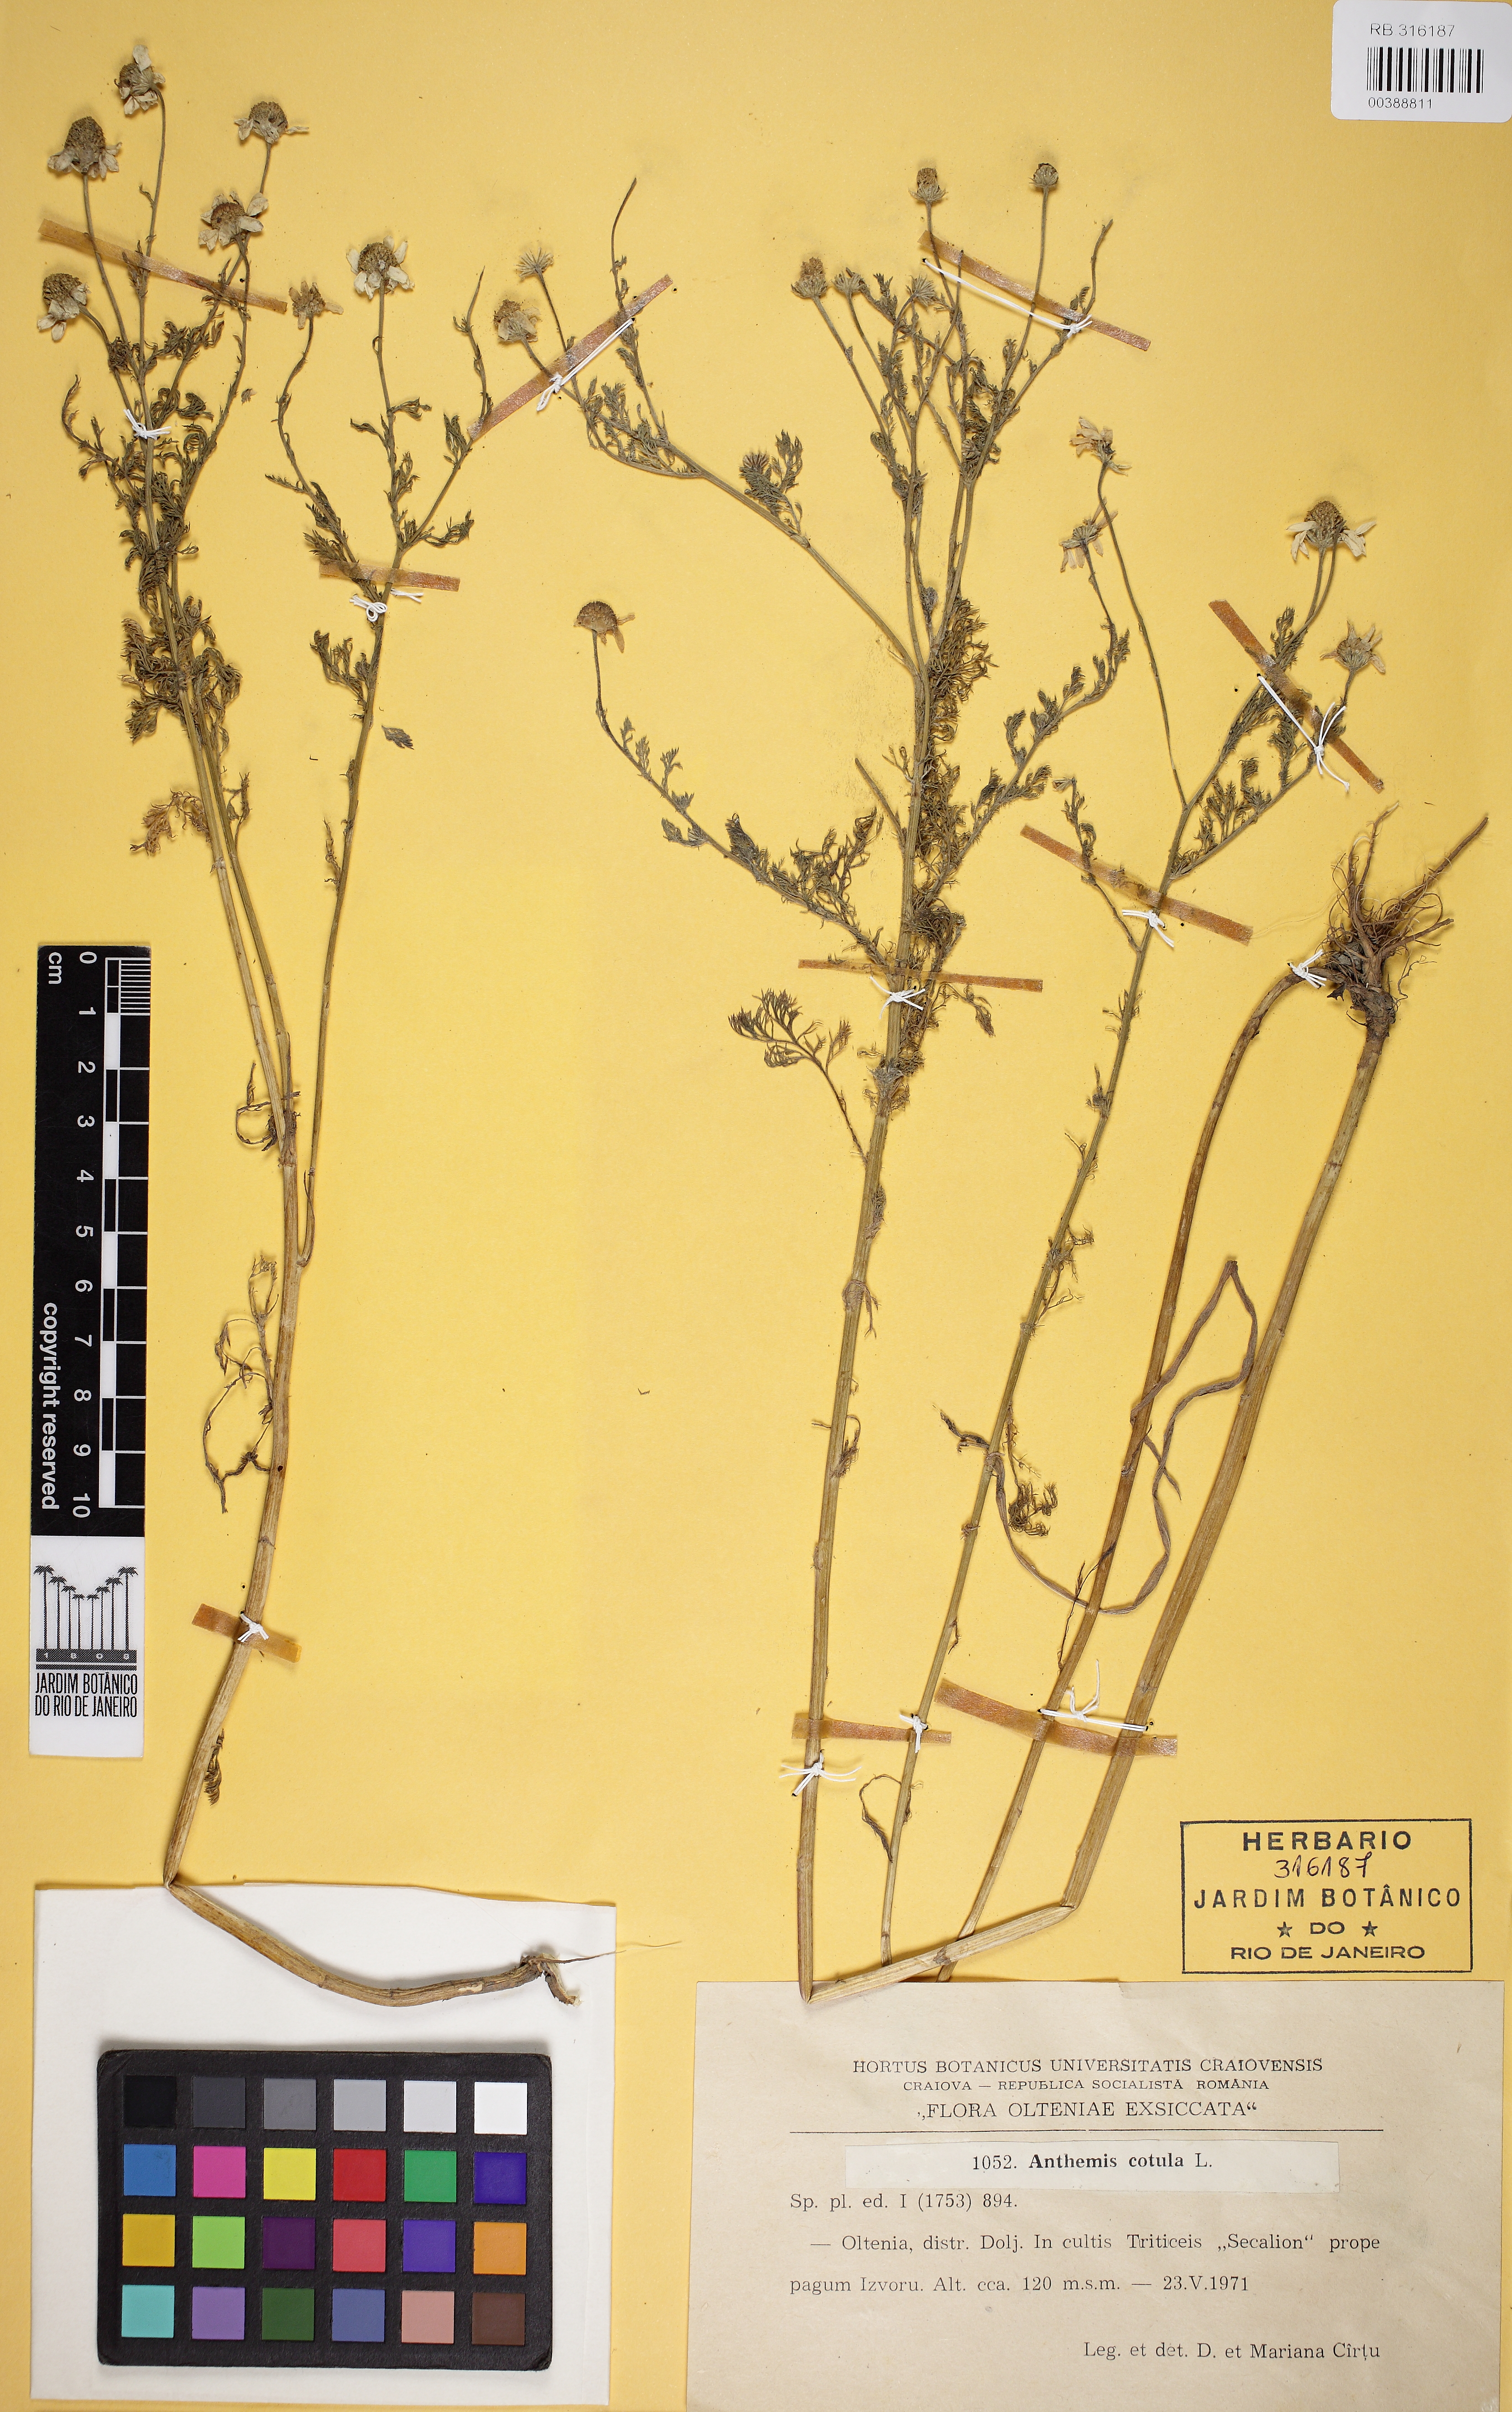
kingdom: Plantae
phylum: Tracheophyta
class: Magnoliopsida
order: Asterales
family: Asteraceae
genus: Anthemis
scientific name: Anthemis cotula
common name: Stinking chamomile
